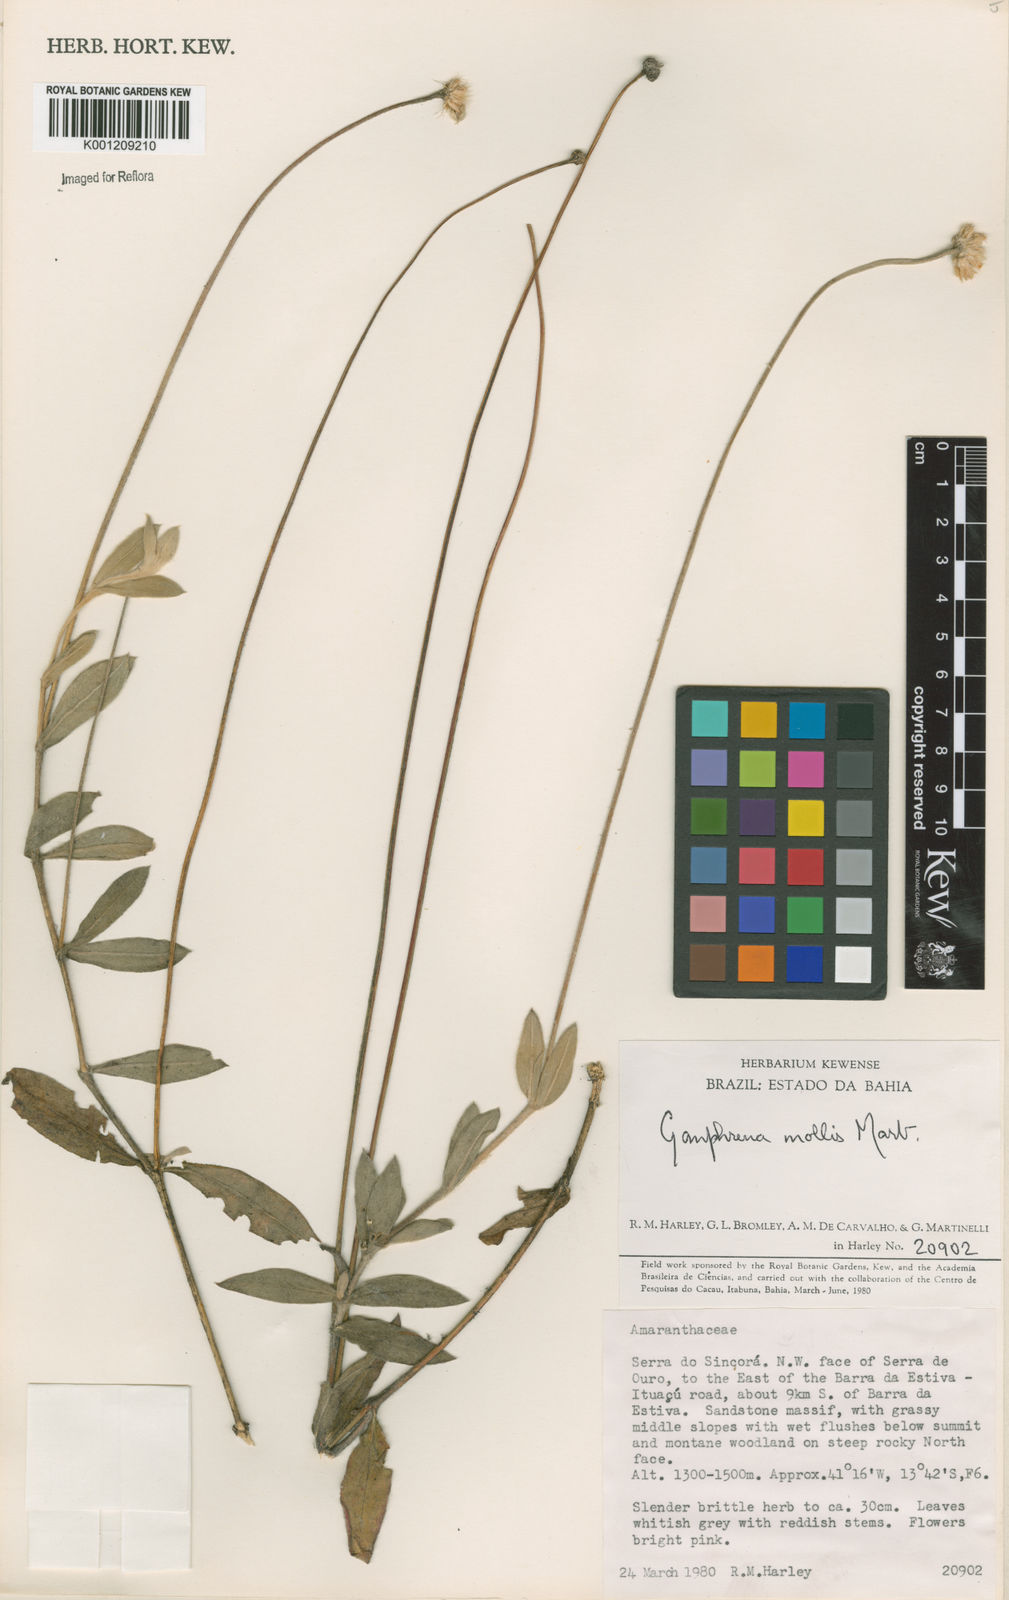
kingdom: Plantae
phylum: Tracheophyta
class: Magnoliopsida
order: Caryophyllales
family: Amaranthaceae
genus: Gomphrena
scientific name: Gomphrena mollis
